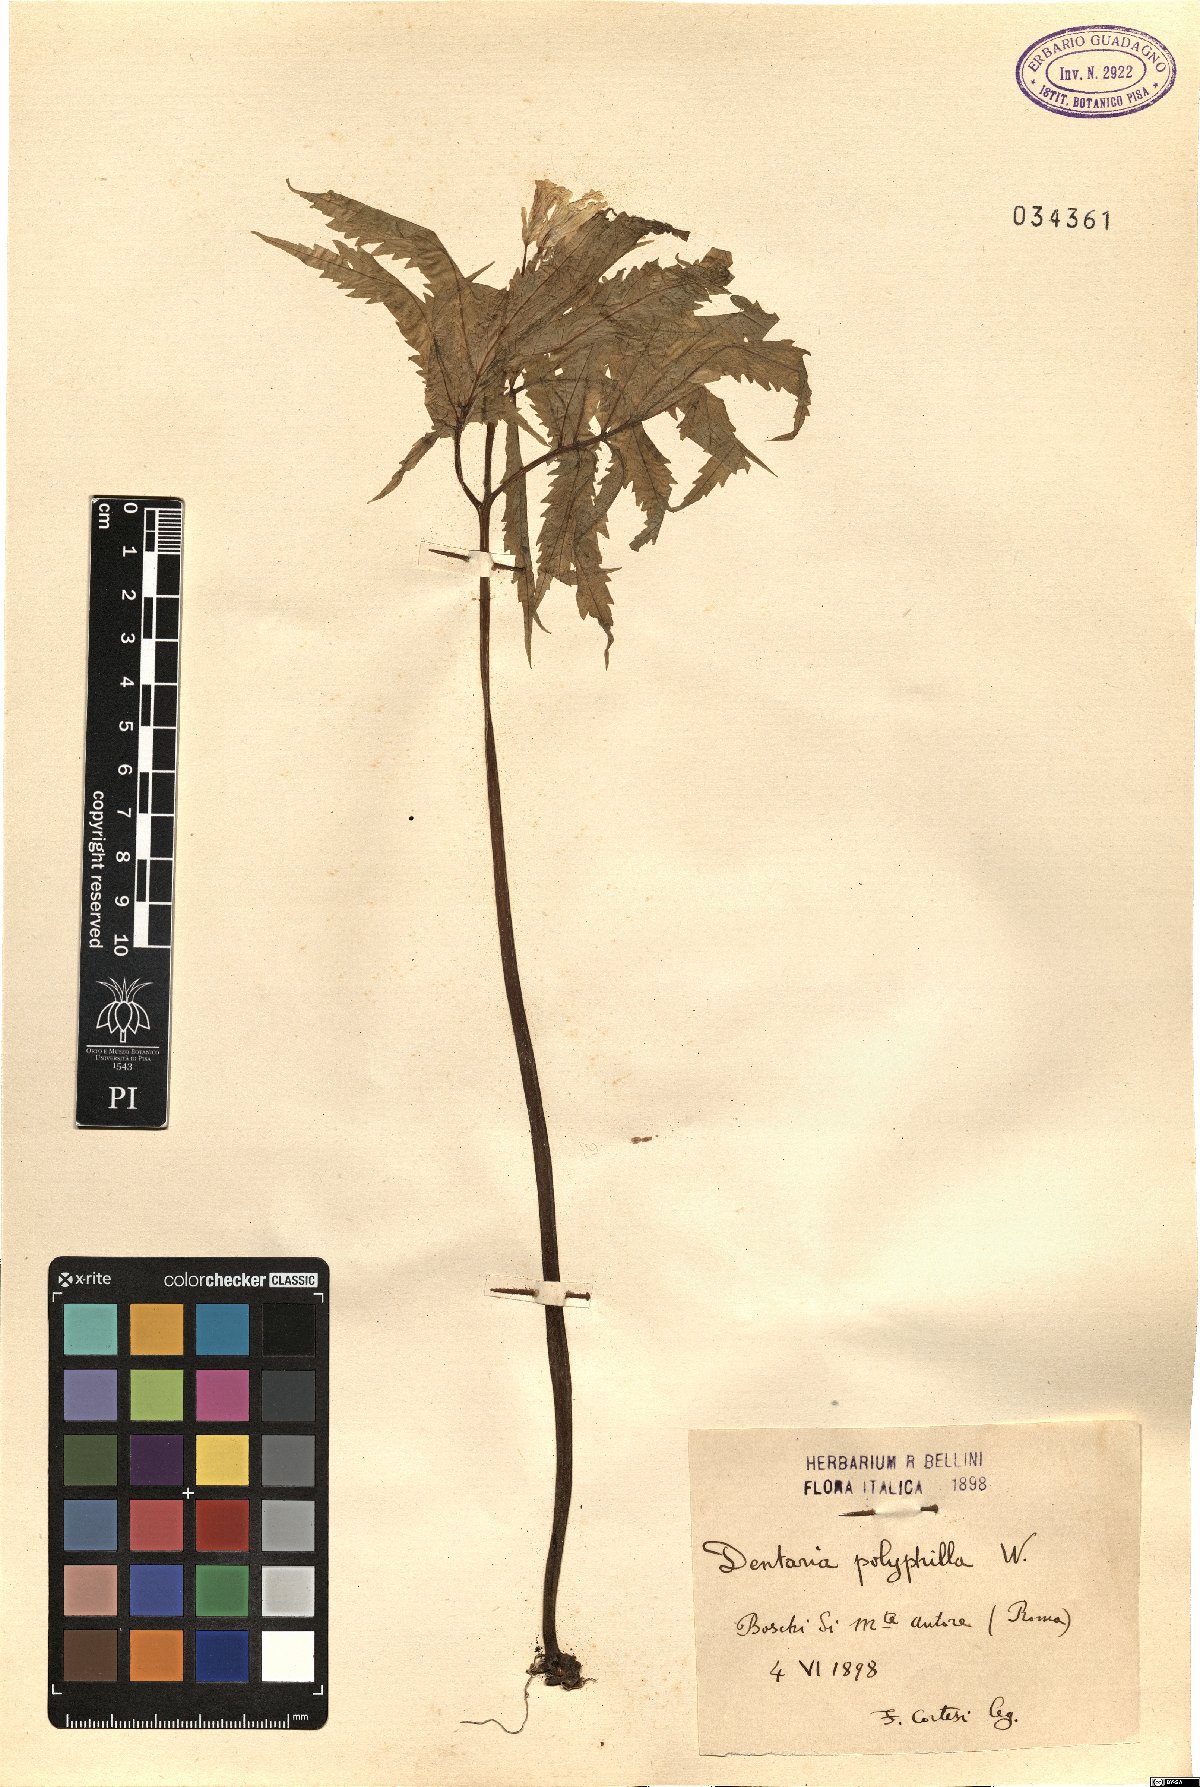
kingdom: Plantae
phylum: Tracheophyta
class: Magnoliopsida
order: Brassicales
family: Brassicaceae
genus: Cardamine
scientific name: Cardamine kitaibelii
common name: Kitaibel's bitter-cress
